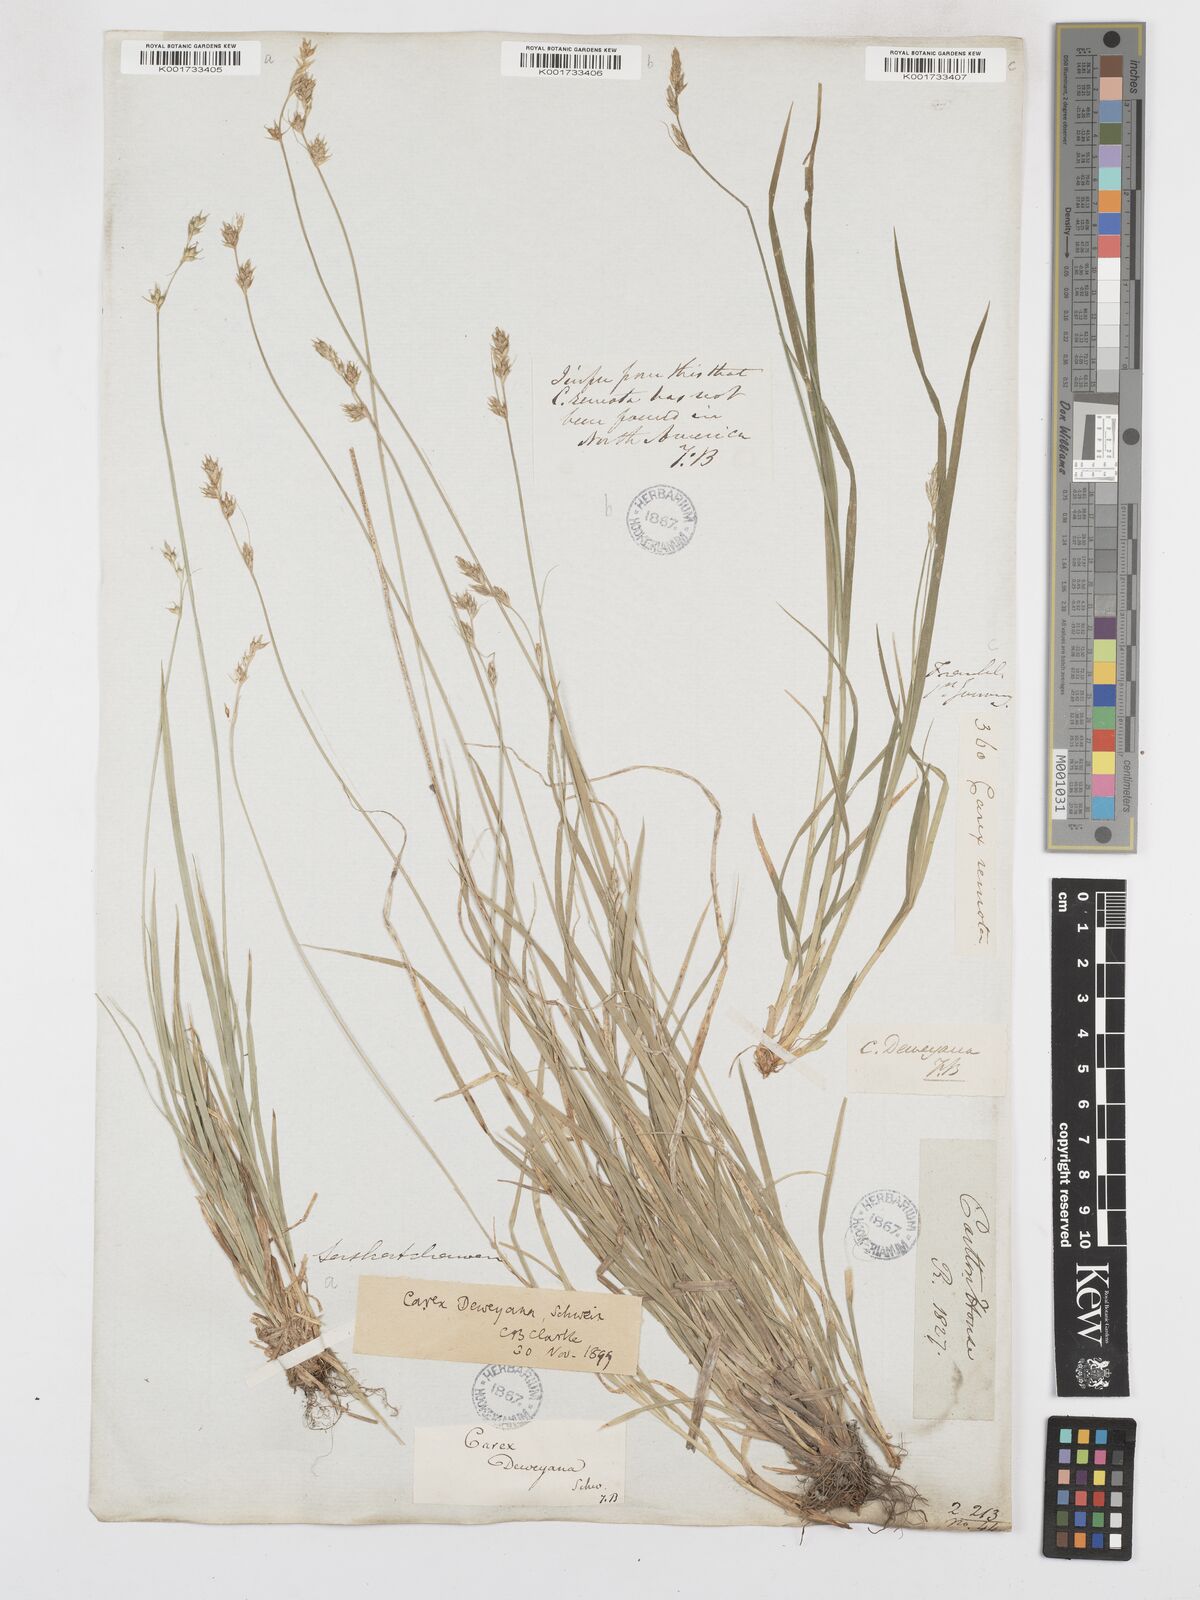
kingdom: Plantae
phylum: Tracheophyta
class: Liliopsida
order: Poales
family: Cyperaceae
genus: Carex
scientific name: Carex deweyana
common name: Dewey's sedge
